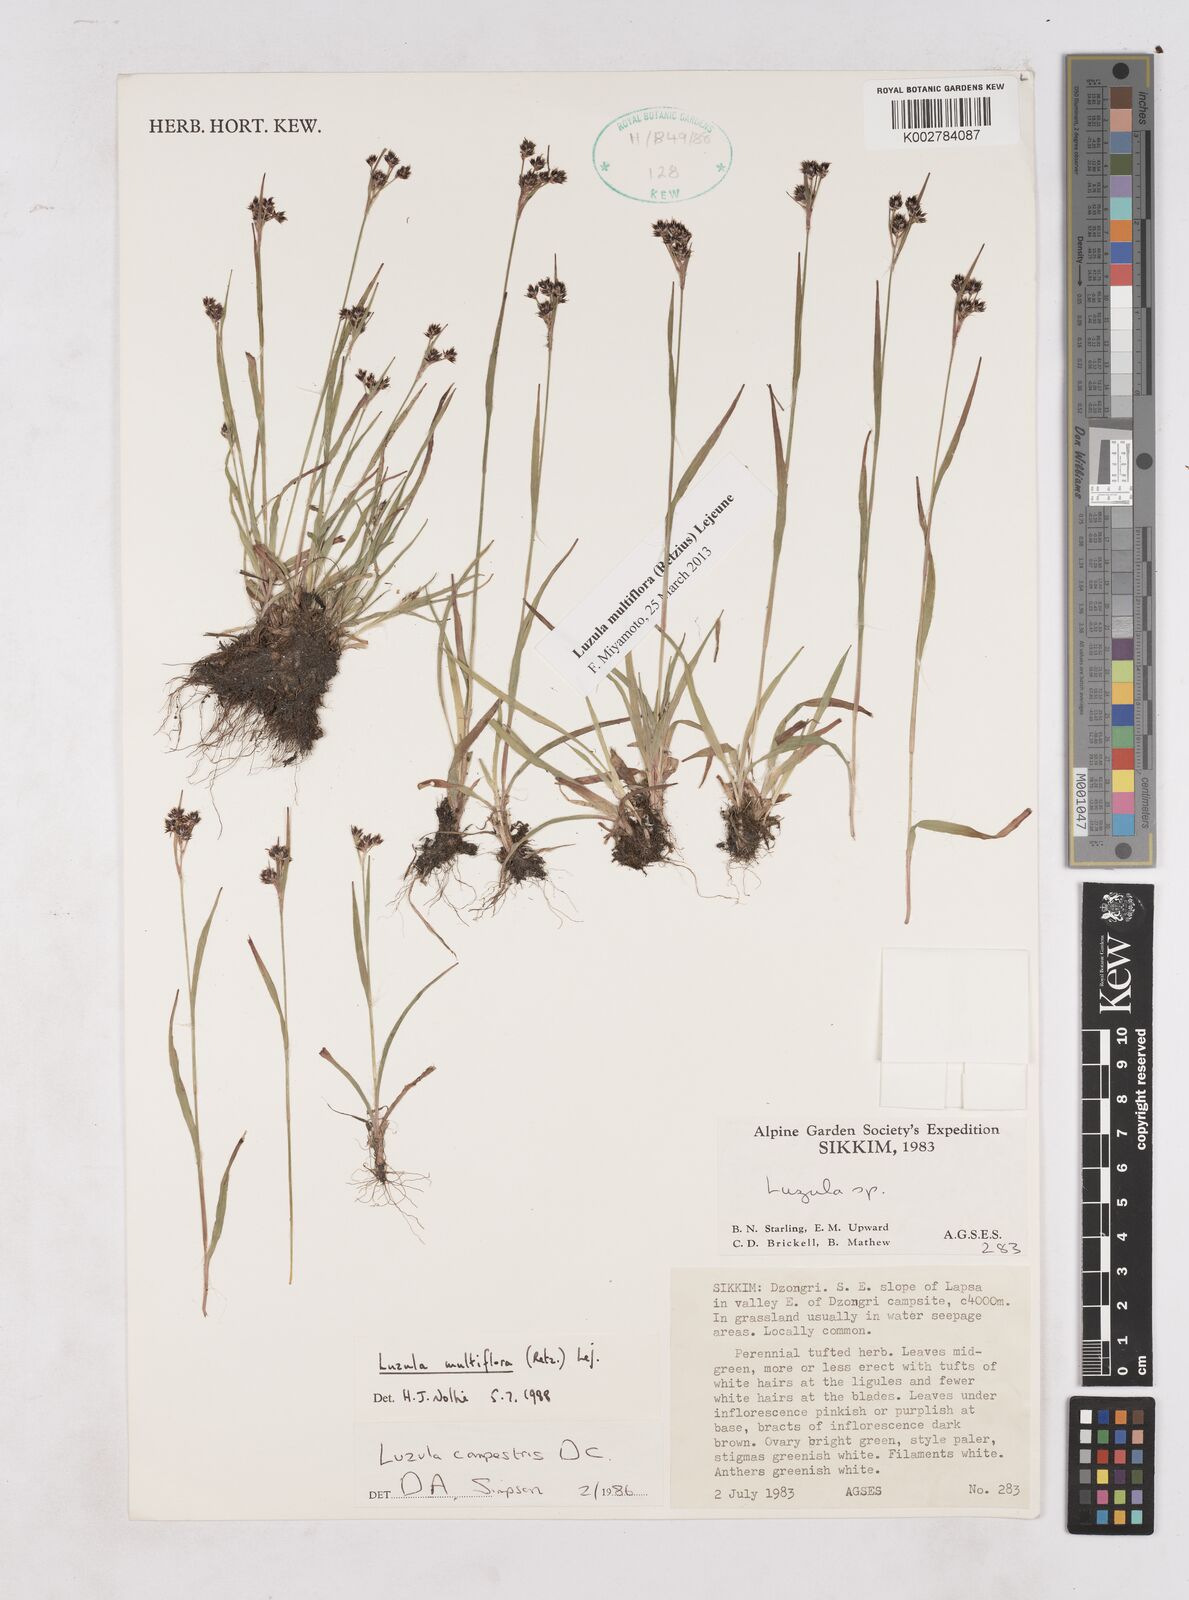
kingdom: Plantae
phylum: Tracheophyta
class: Liliopsida
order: Poales
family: Juncaceae
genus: Luzula
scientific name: Luzula campestris
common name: Field wood-rush
